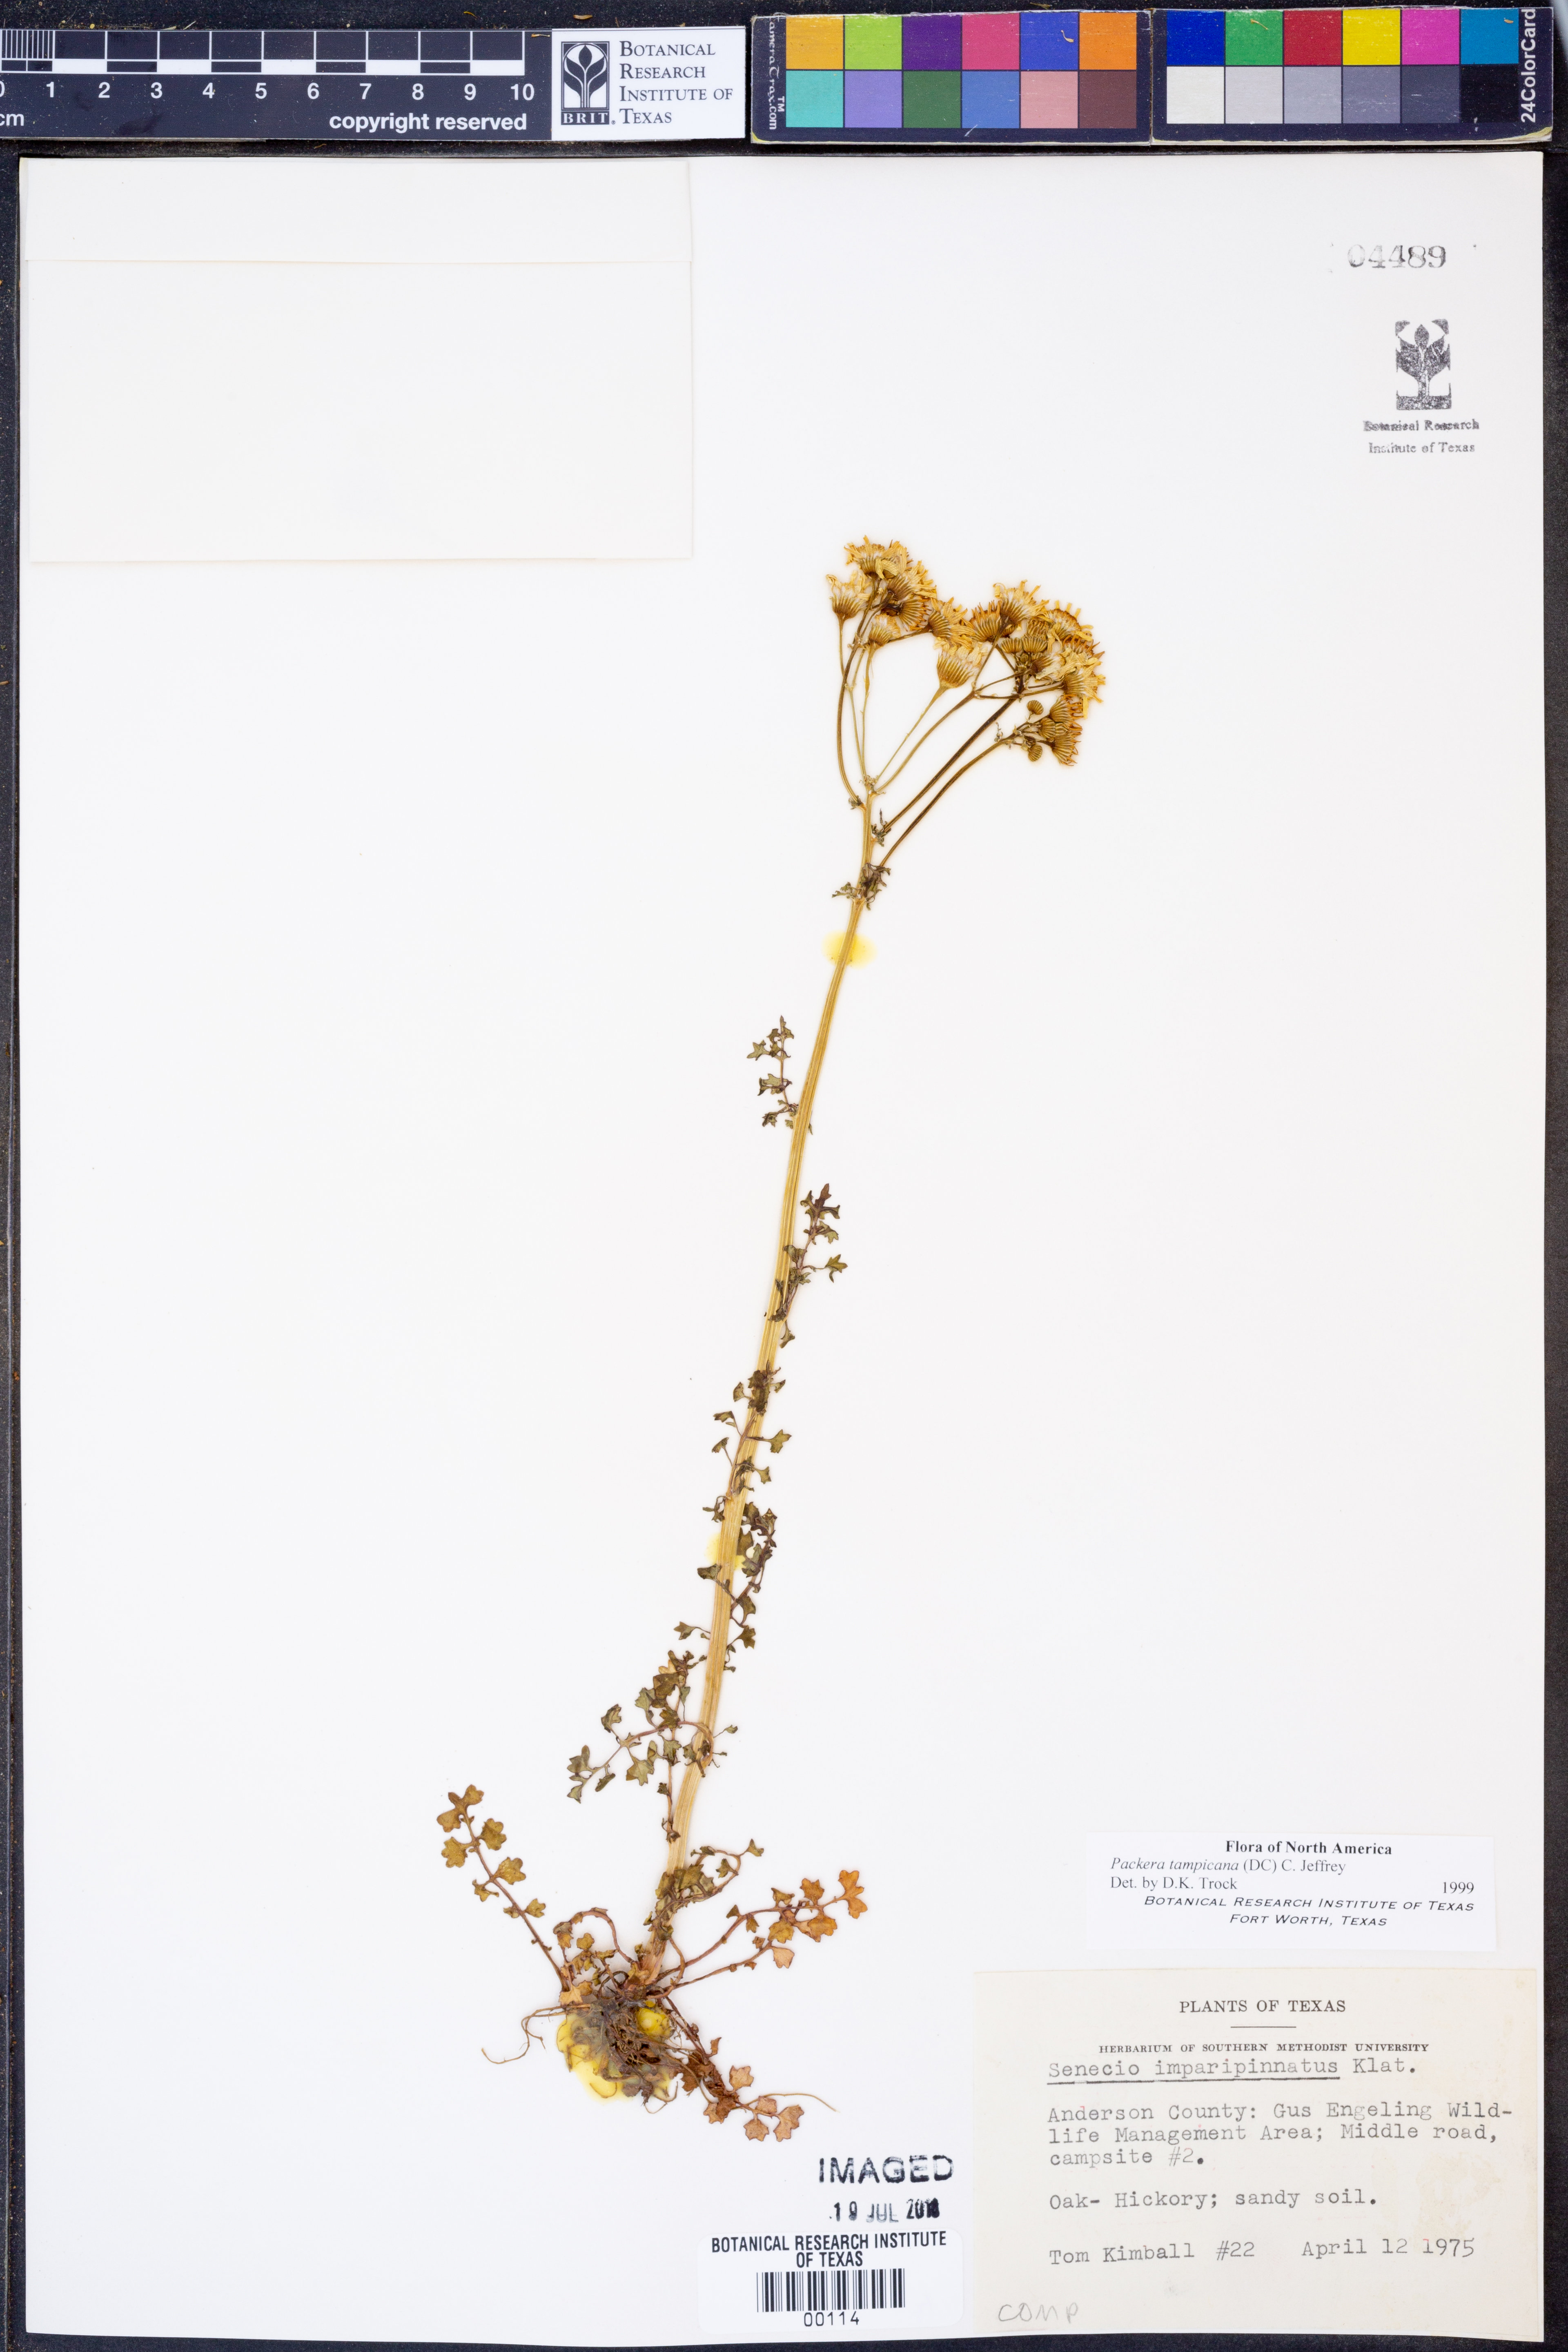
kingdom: Plantae
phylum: Tracheophyta
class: Magnoliopsida
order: Asterales
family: Asteraceae
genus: Packera
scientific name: Packera tampicana
